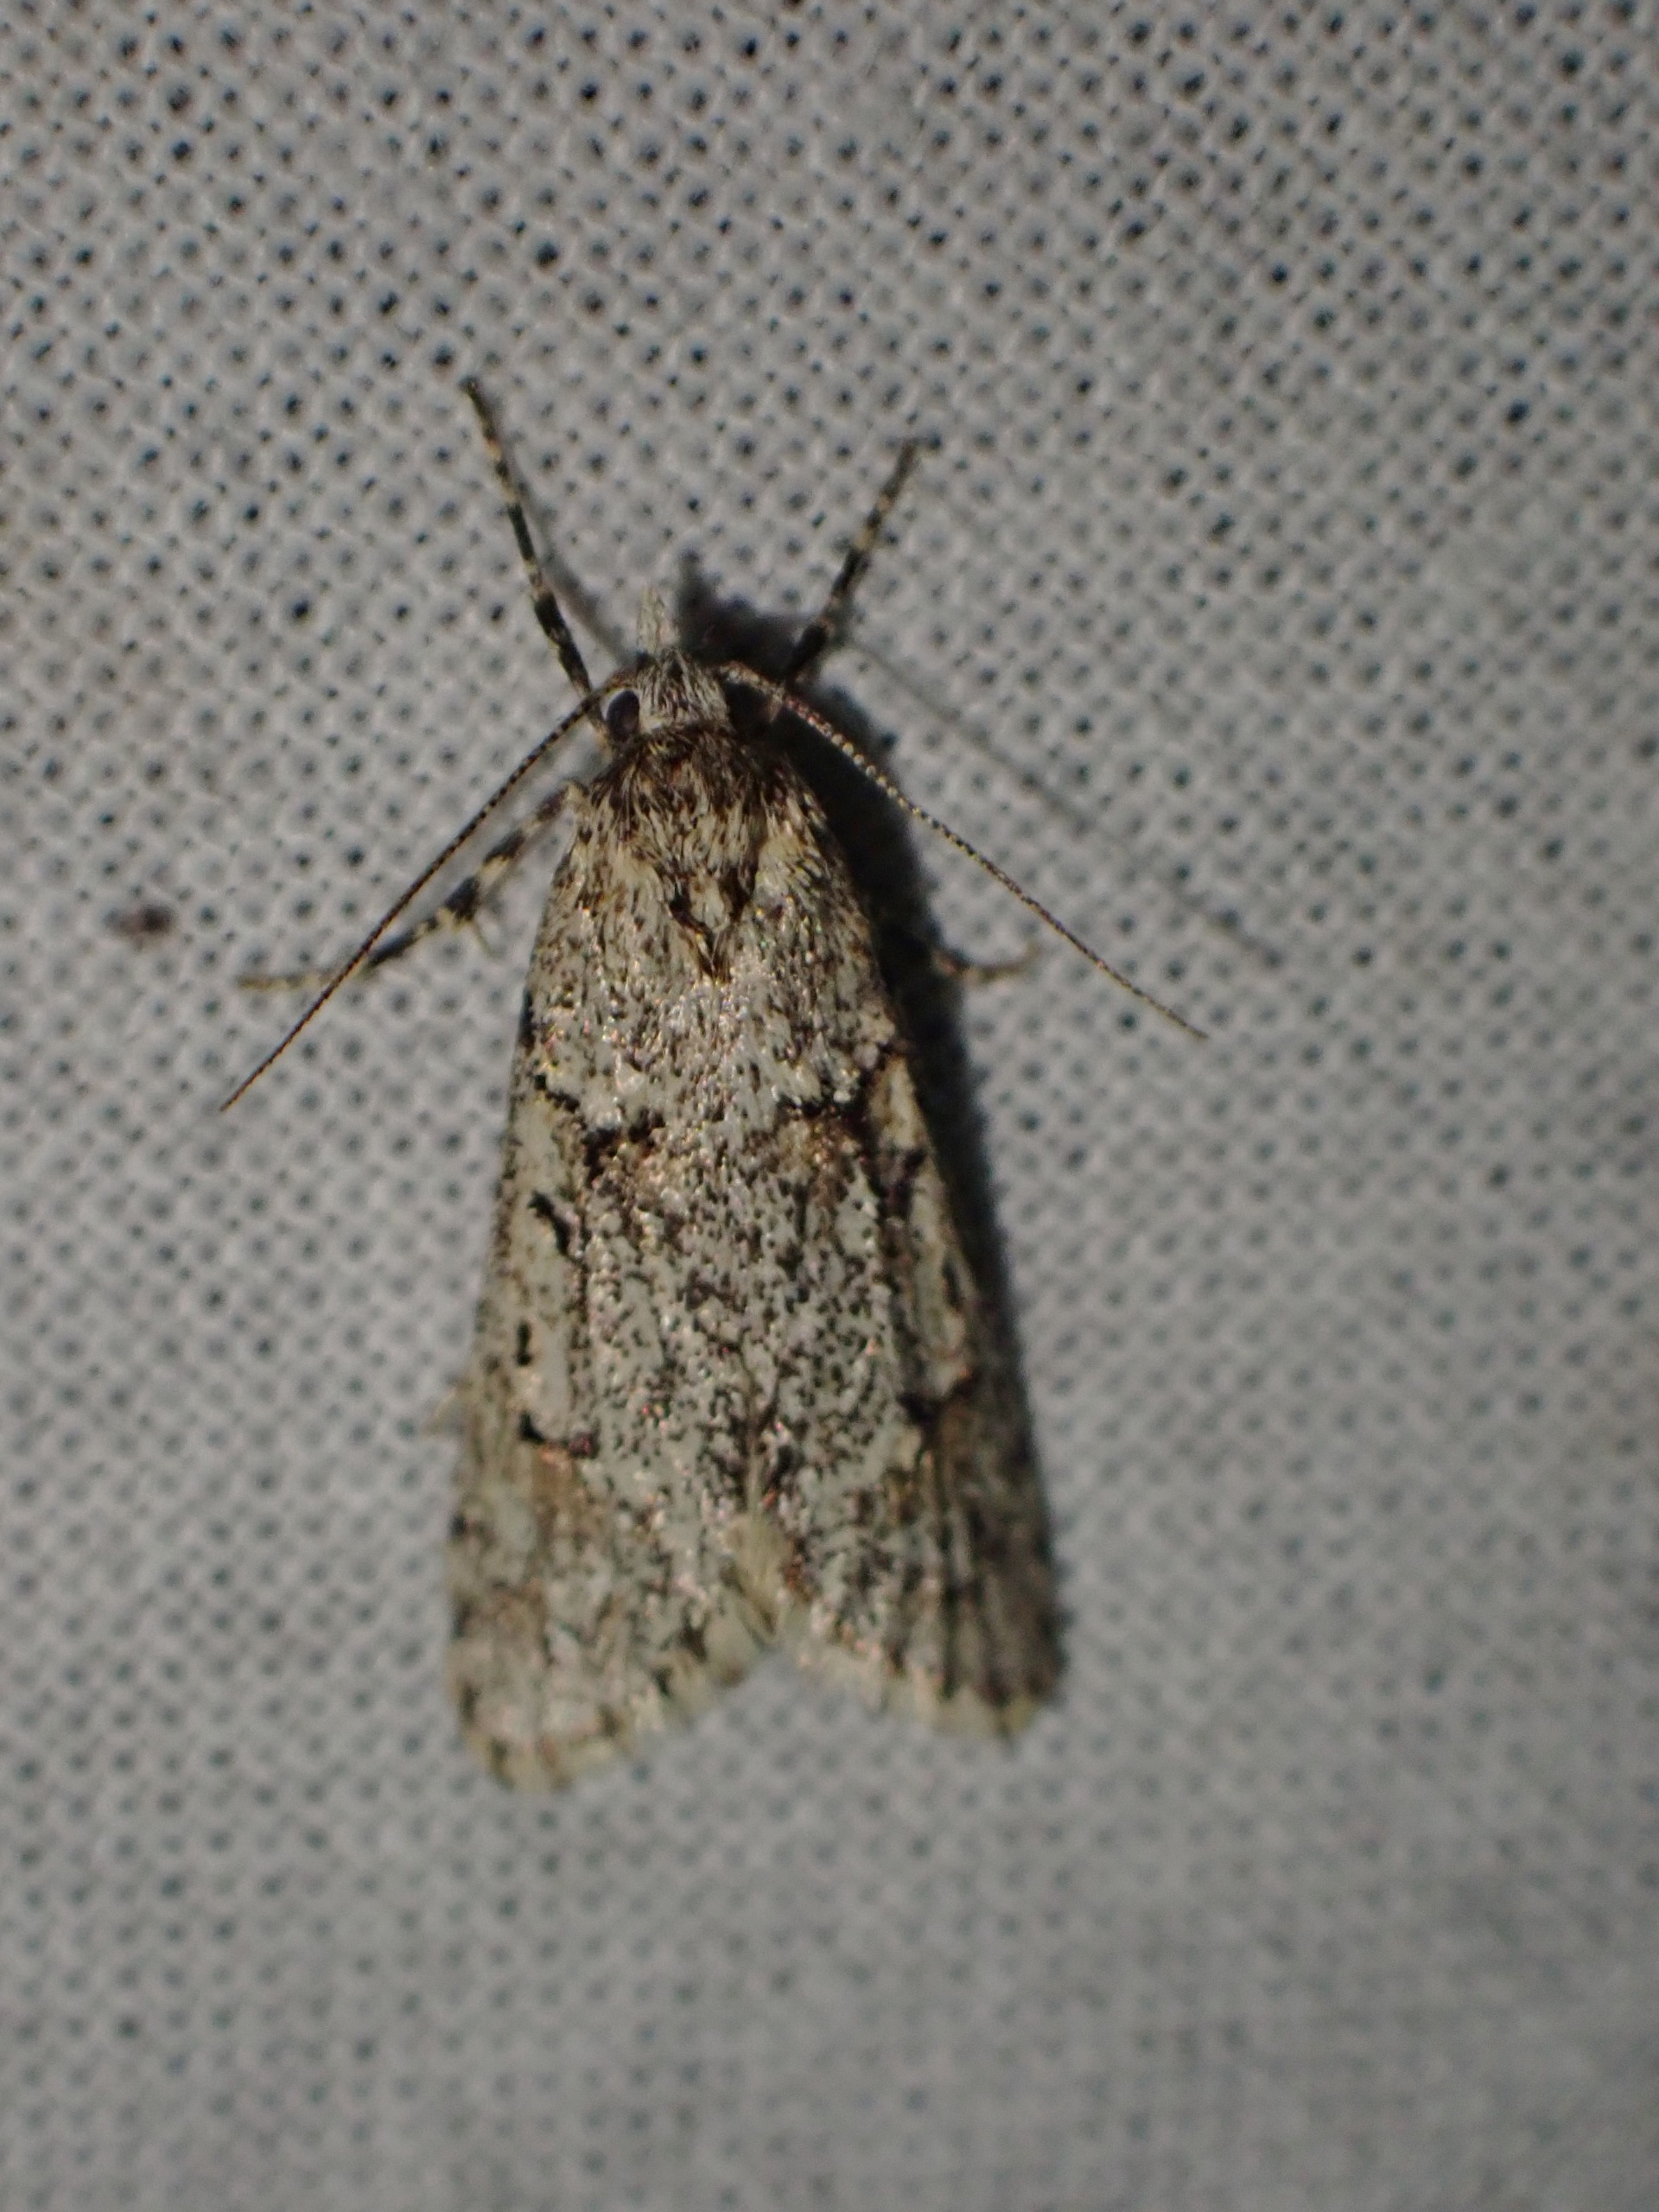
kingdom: Animalia
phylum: Arthropoda
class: Insecta
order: Lepidoptera
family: Lypusidae
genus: Diurnea
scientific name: Diurnea fagella
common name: Bøgeprydvinge
